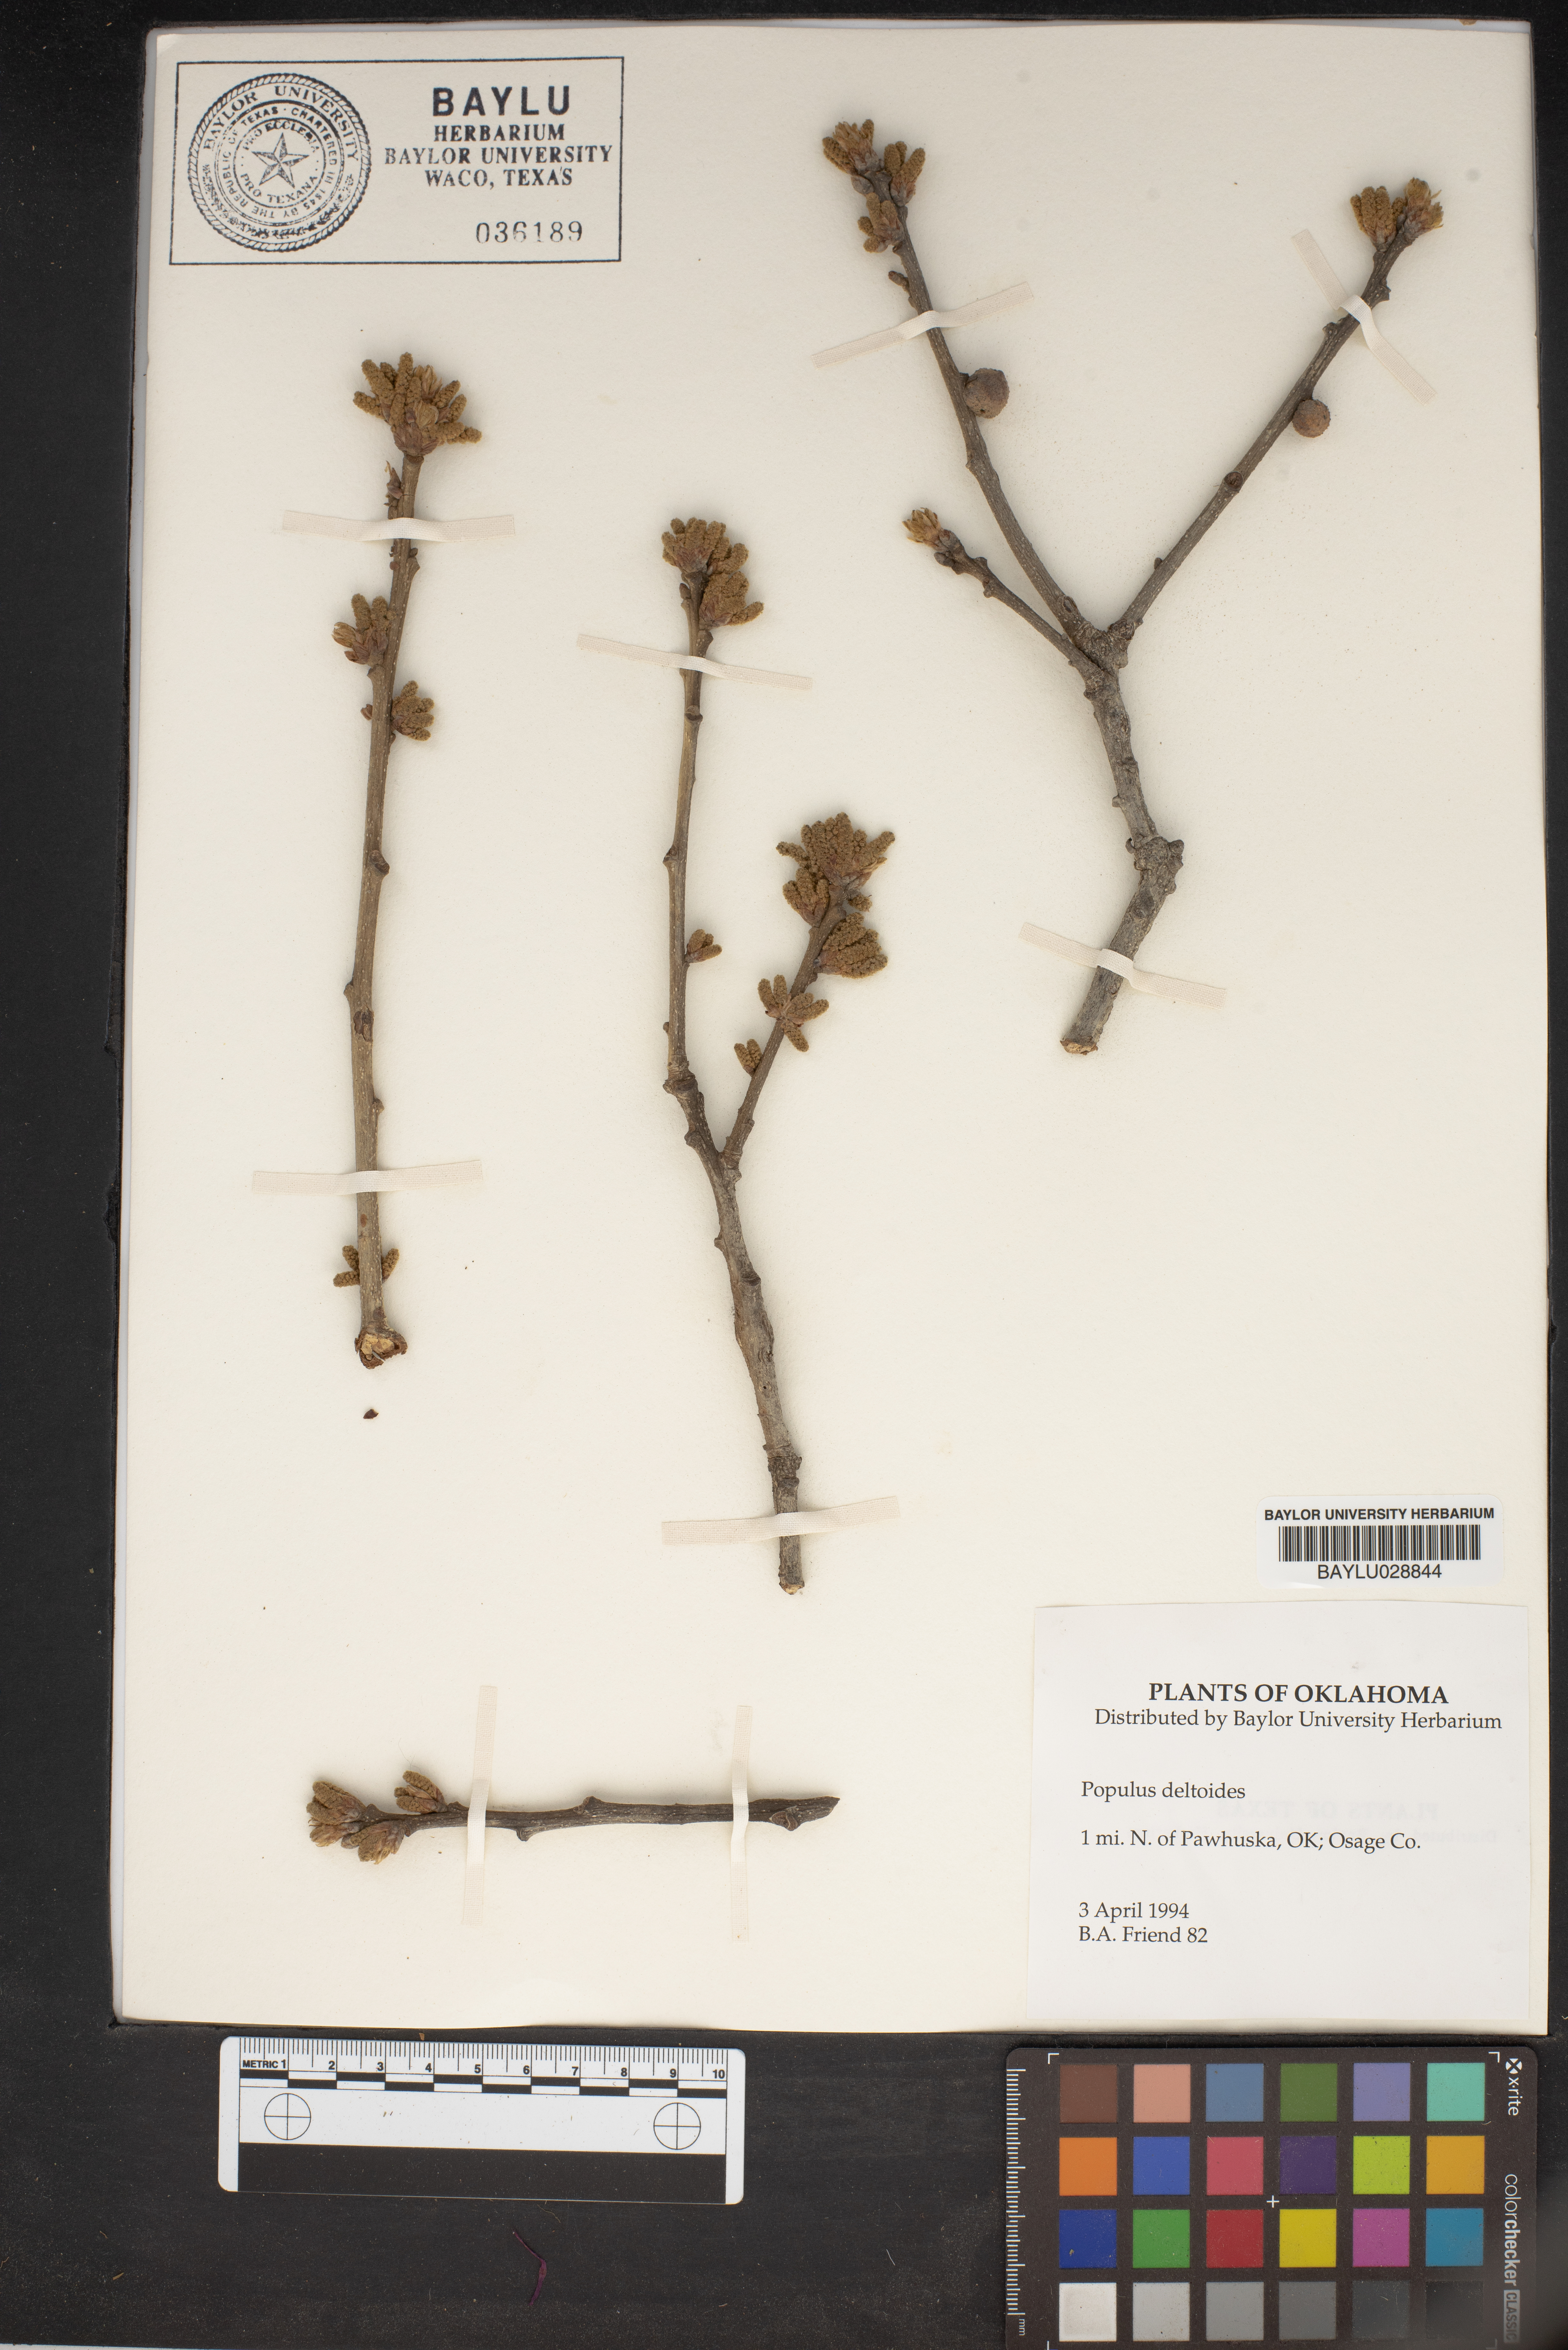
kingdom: Plantae
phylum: Tracheophyta
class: Magnoliopsida
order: Malpighiales
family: Salicaceae
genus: Populus
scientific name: Populus deltoides
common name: Eastern cottonwood
